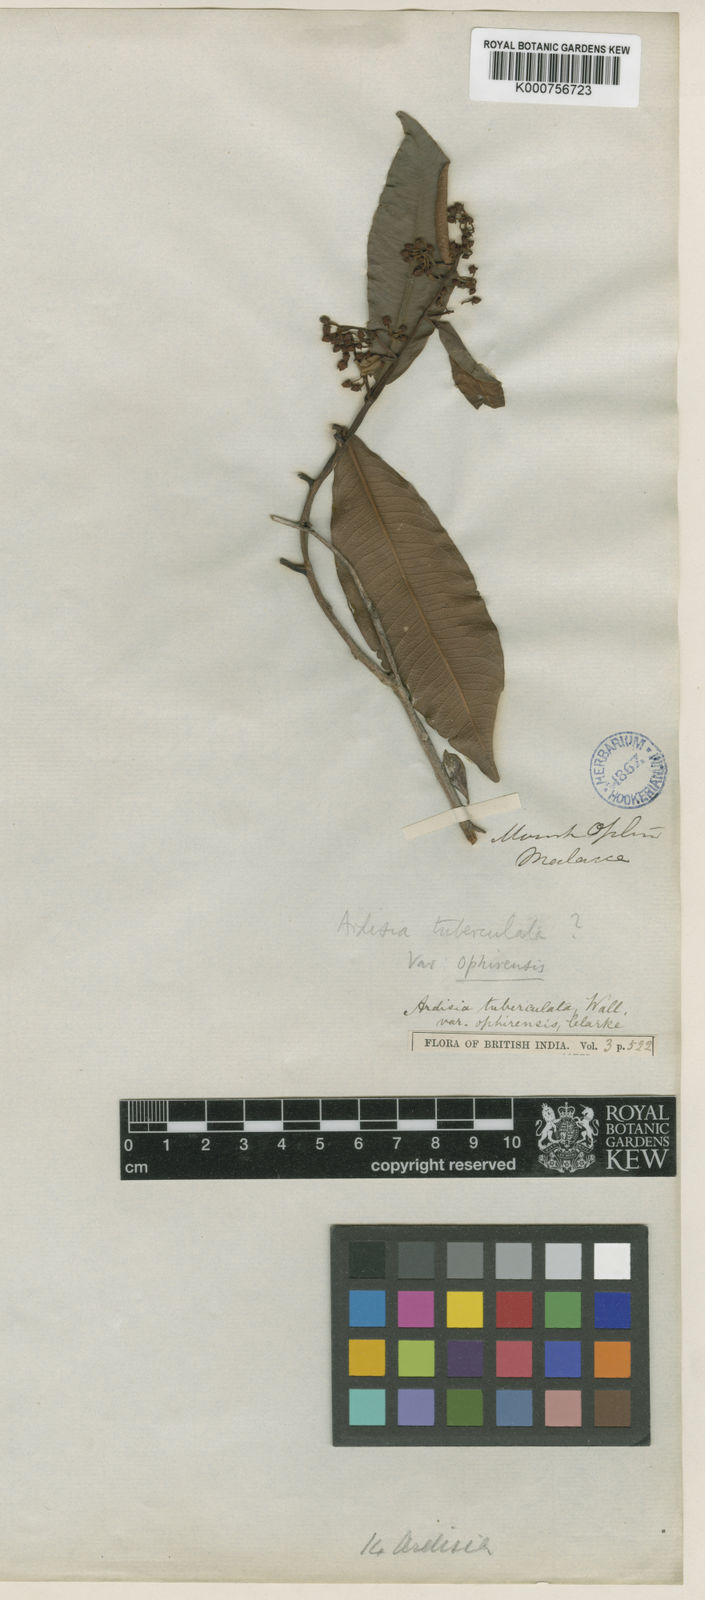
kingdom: Plantae
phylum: Tracheophyta
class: Magnoliopsida
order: Ericales
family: Primulaceae
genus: Ardisia
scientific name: Ardisia ophirensis
